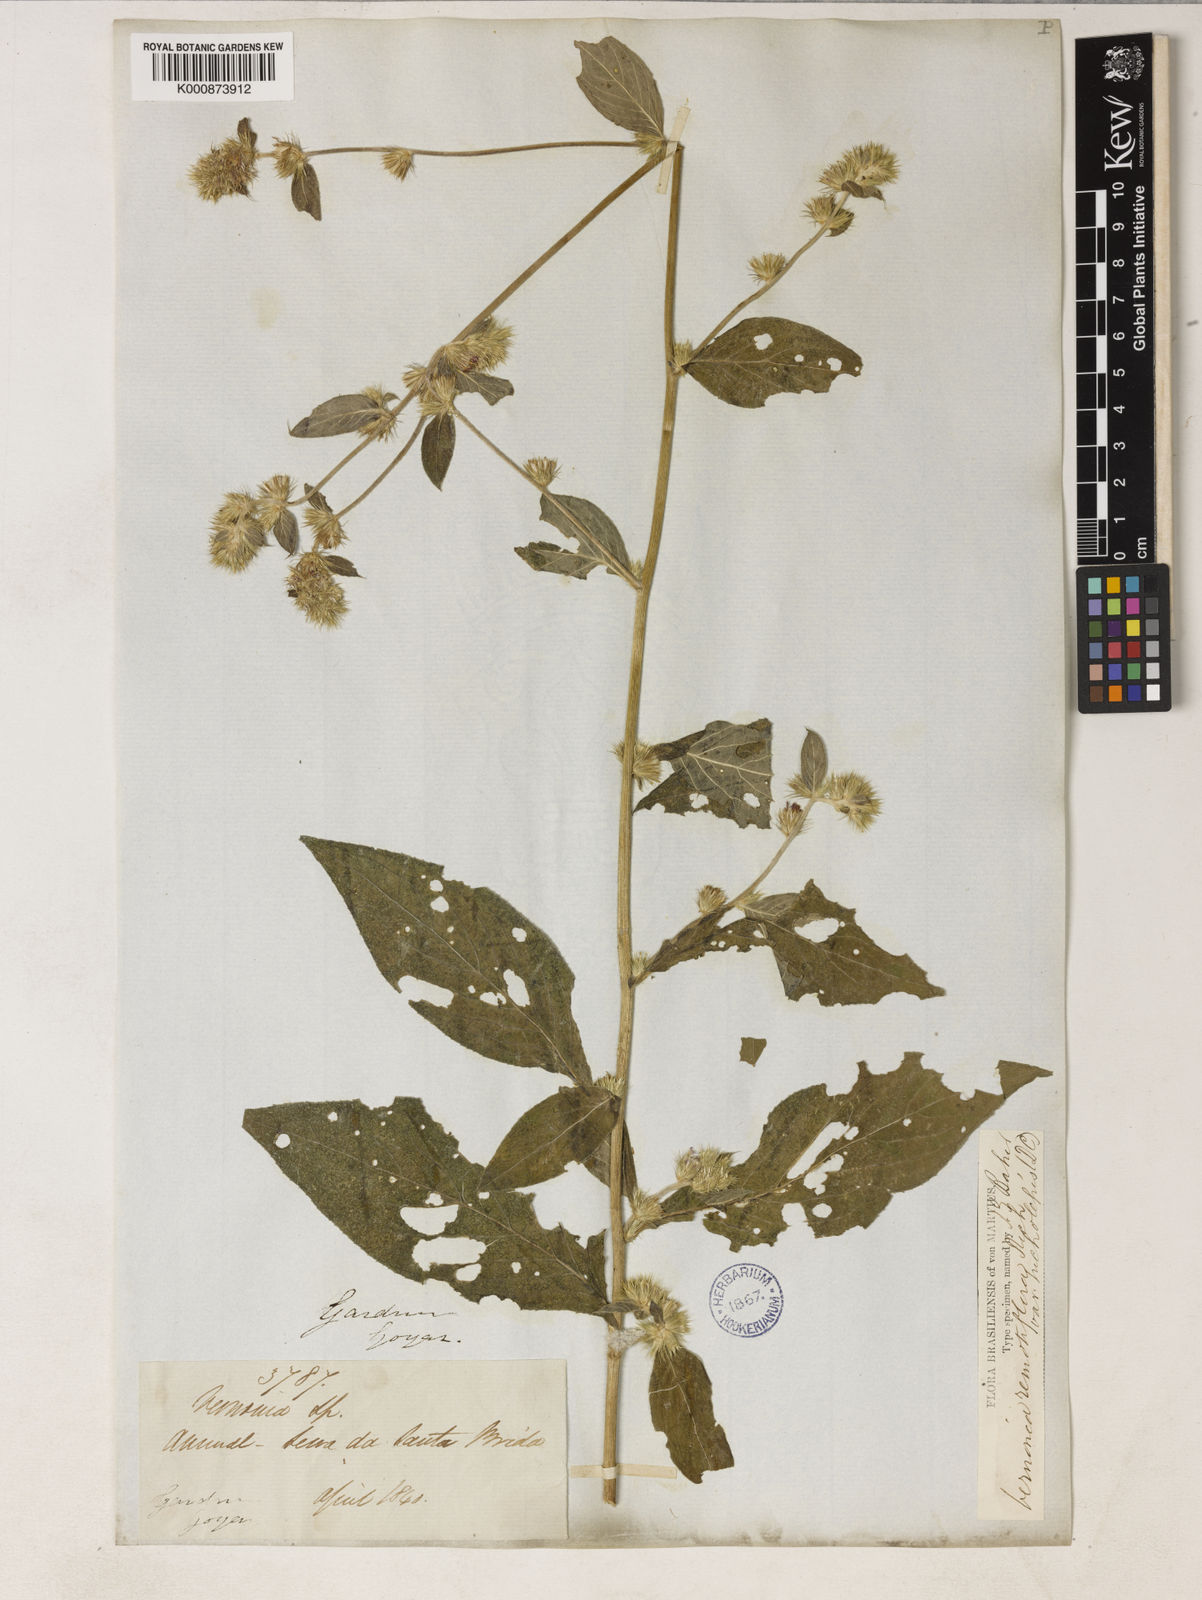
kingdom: Plantae
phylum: Tracheophyta
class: Magnoliopsida
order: Asterales
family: Asteraceae
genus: Lepidaploa
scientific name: Lepidaploa remotiflora
